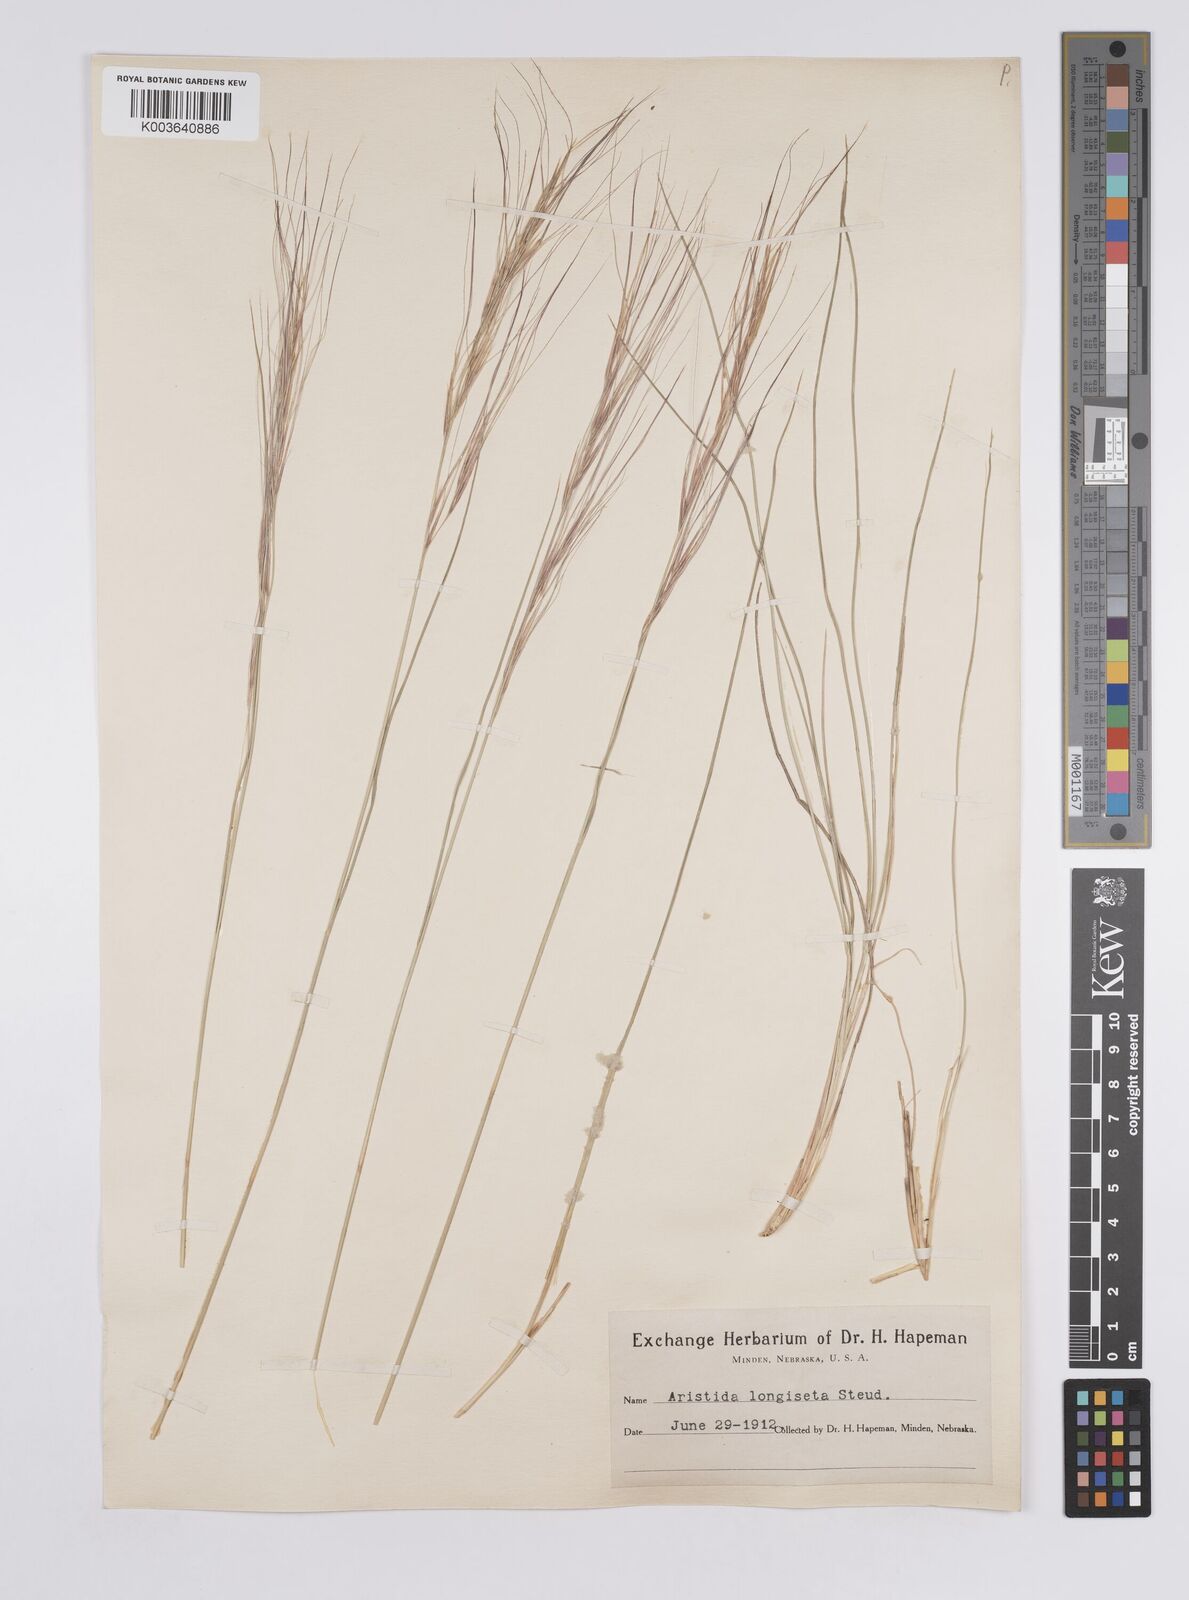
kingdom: Plantae
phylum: Tracheophyta
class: Liliopsida
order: Poales
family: Poaceae
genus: Aristida
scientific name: Aristida purpurea
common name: Purple threeawn
